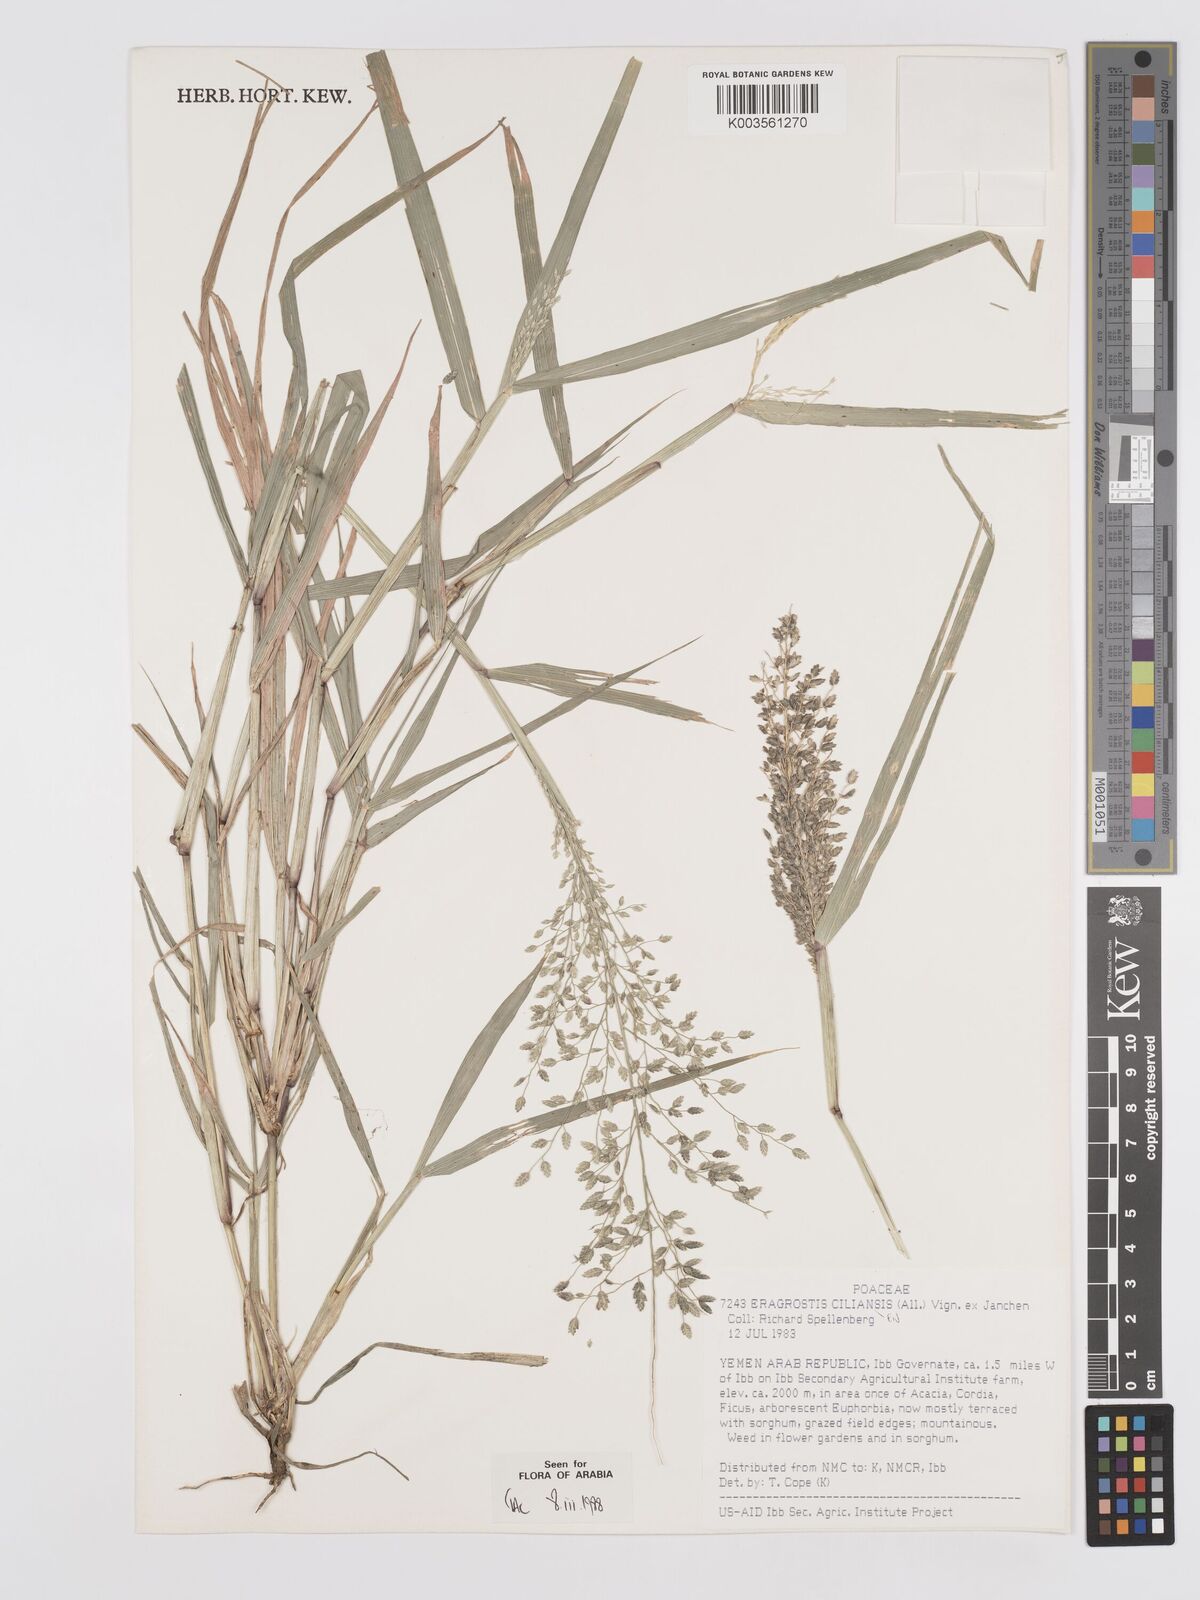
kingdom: Plantae
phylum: Tracheophyta
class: Liliopsida
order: Poales
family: Poaceae
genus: Eragrostis
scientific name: Eragrostis cilianensis
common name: Stinkgrass
